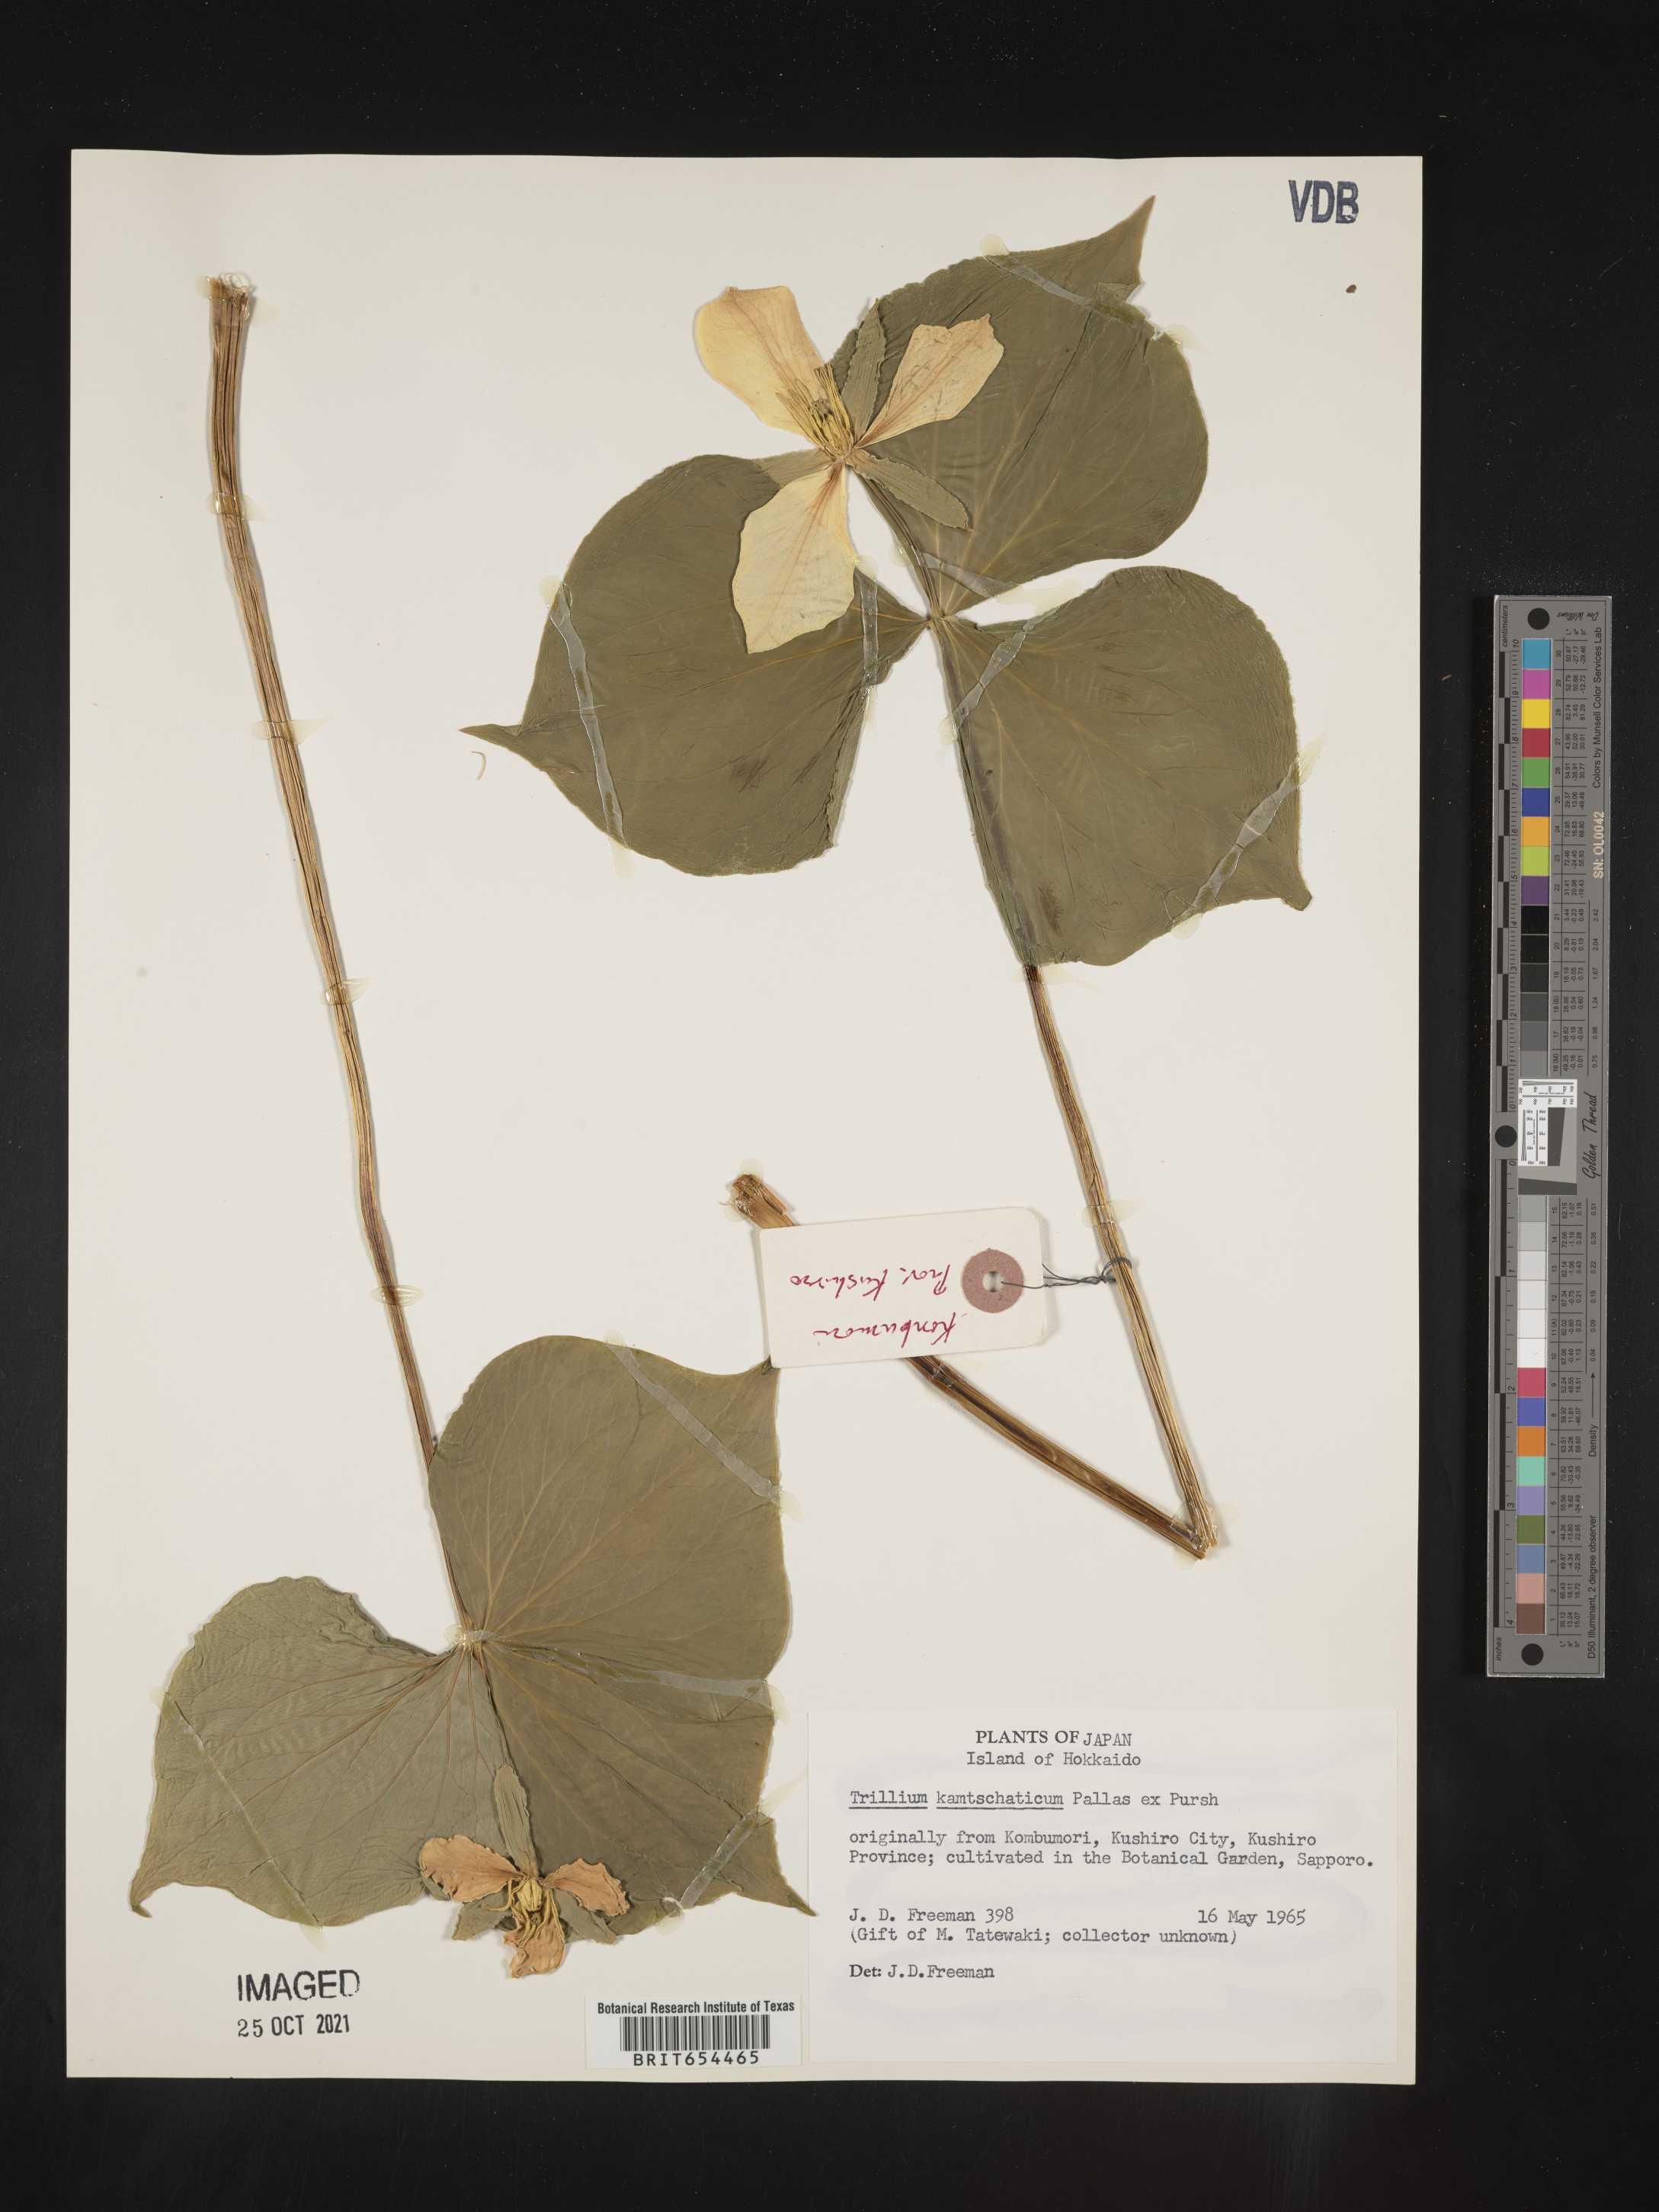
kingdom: Plantae
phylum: Tracheophyta
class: Liliopsida
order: Liliales
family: Melanthiaceae
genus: Trillium
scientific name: Trillium
